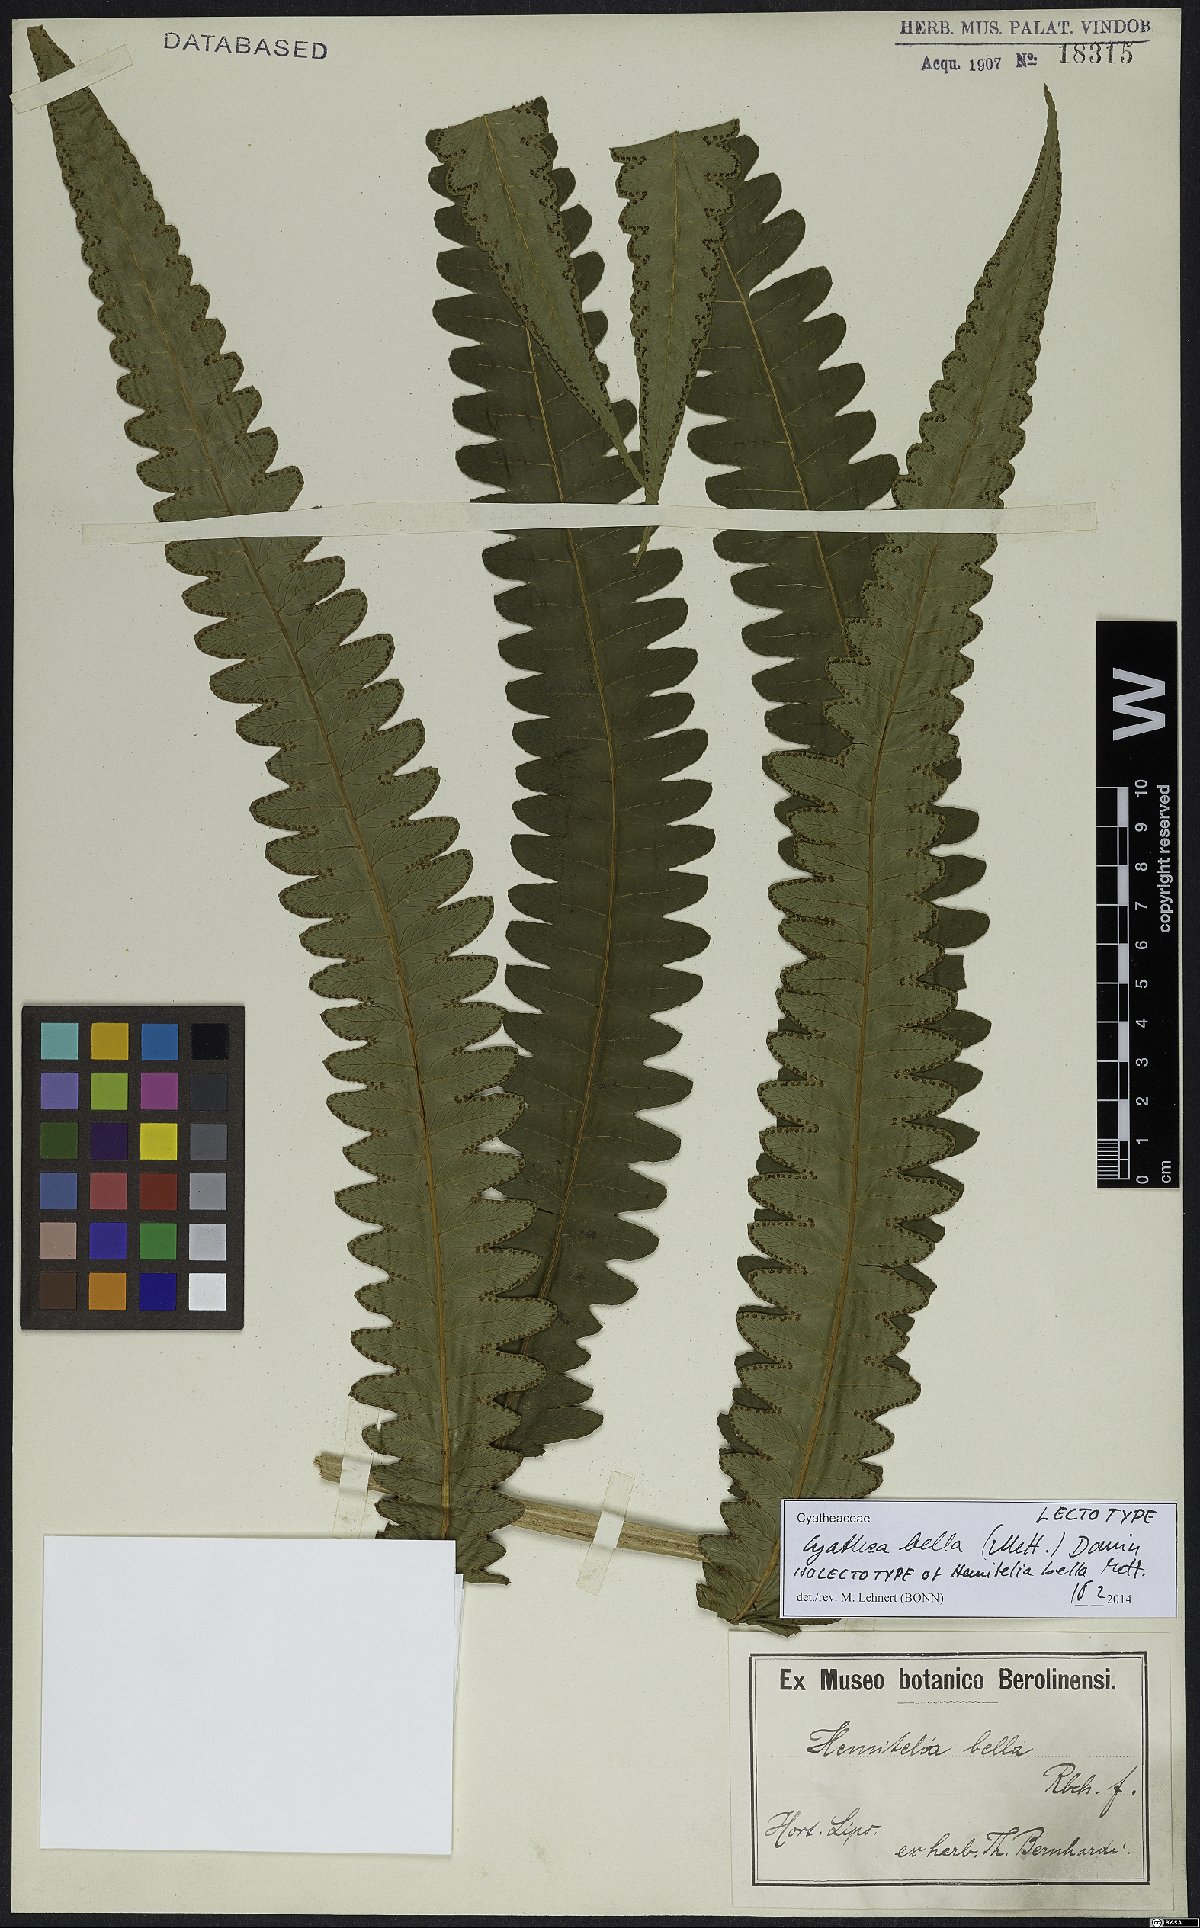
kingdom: Plantae
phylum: Tracheophyta
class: Polypodiopsida
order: Cyatheales
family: Cyatheaceae
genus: Cyathea
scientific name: Cyathea bella
